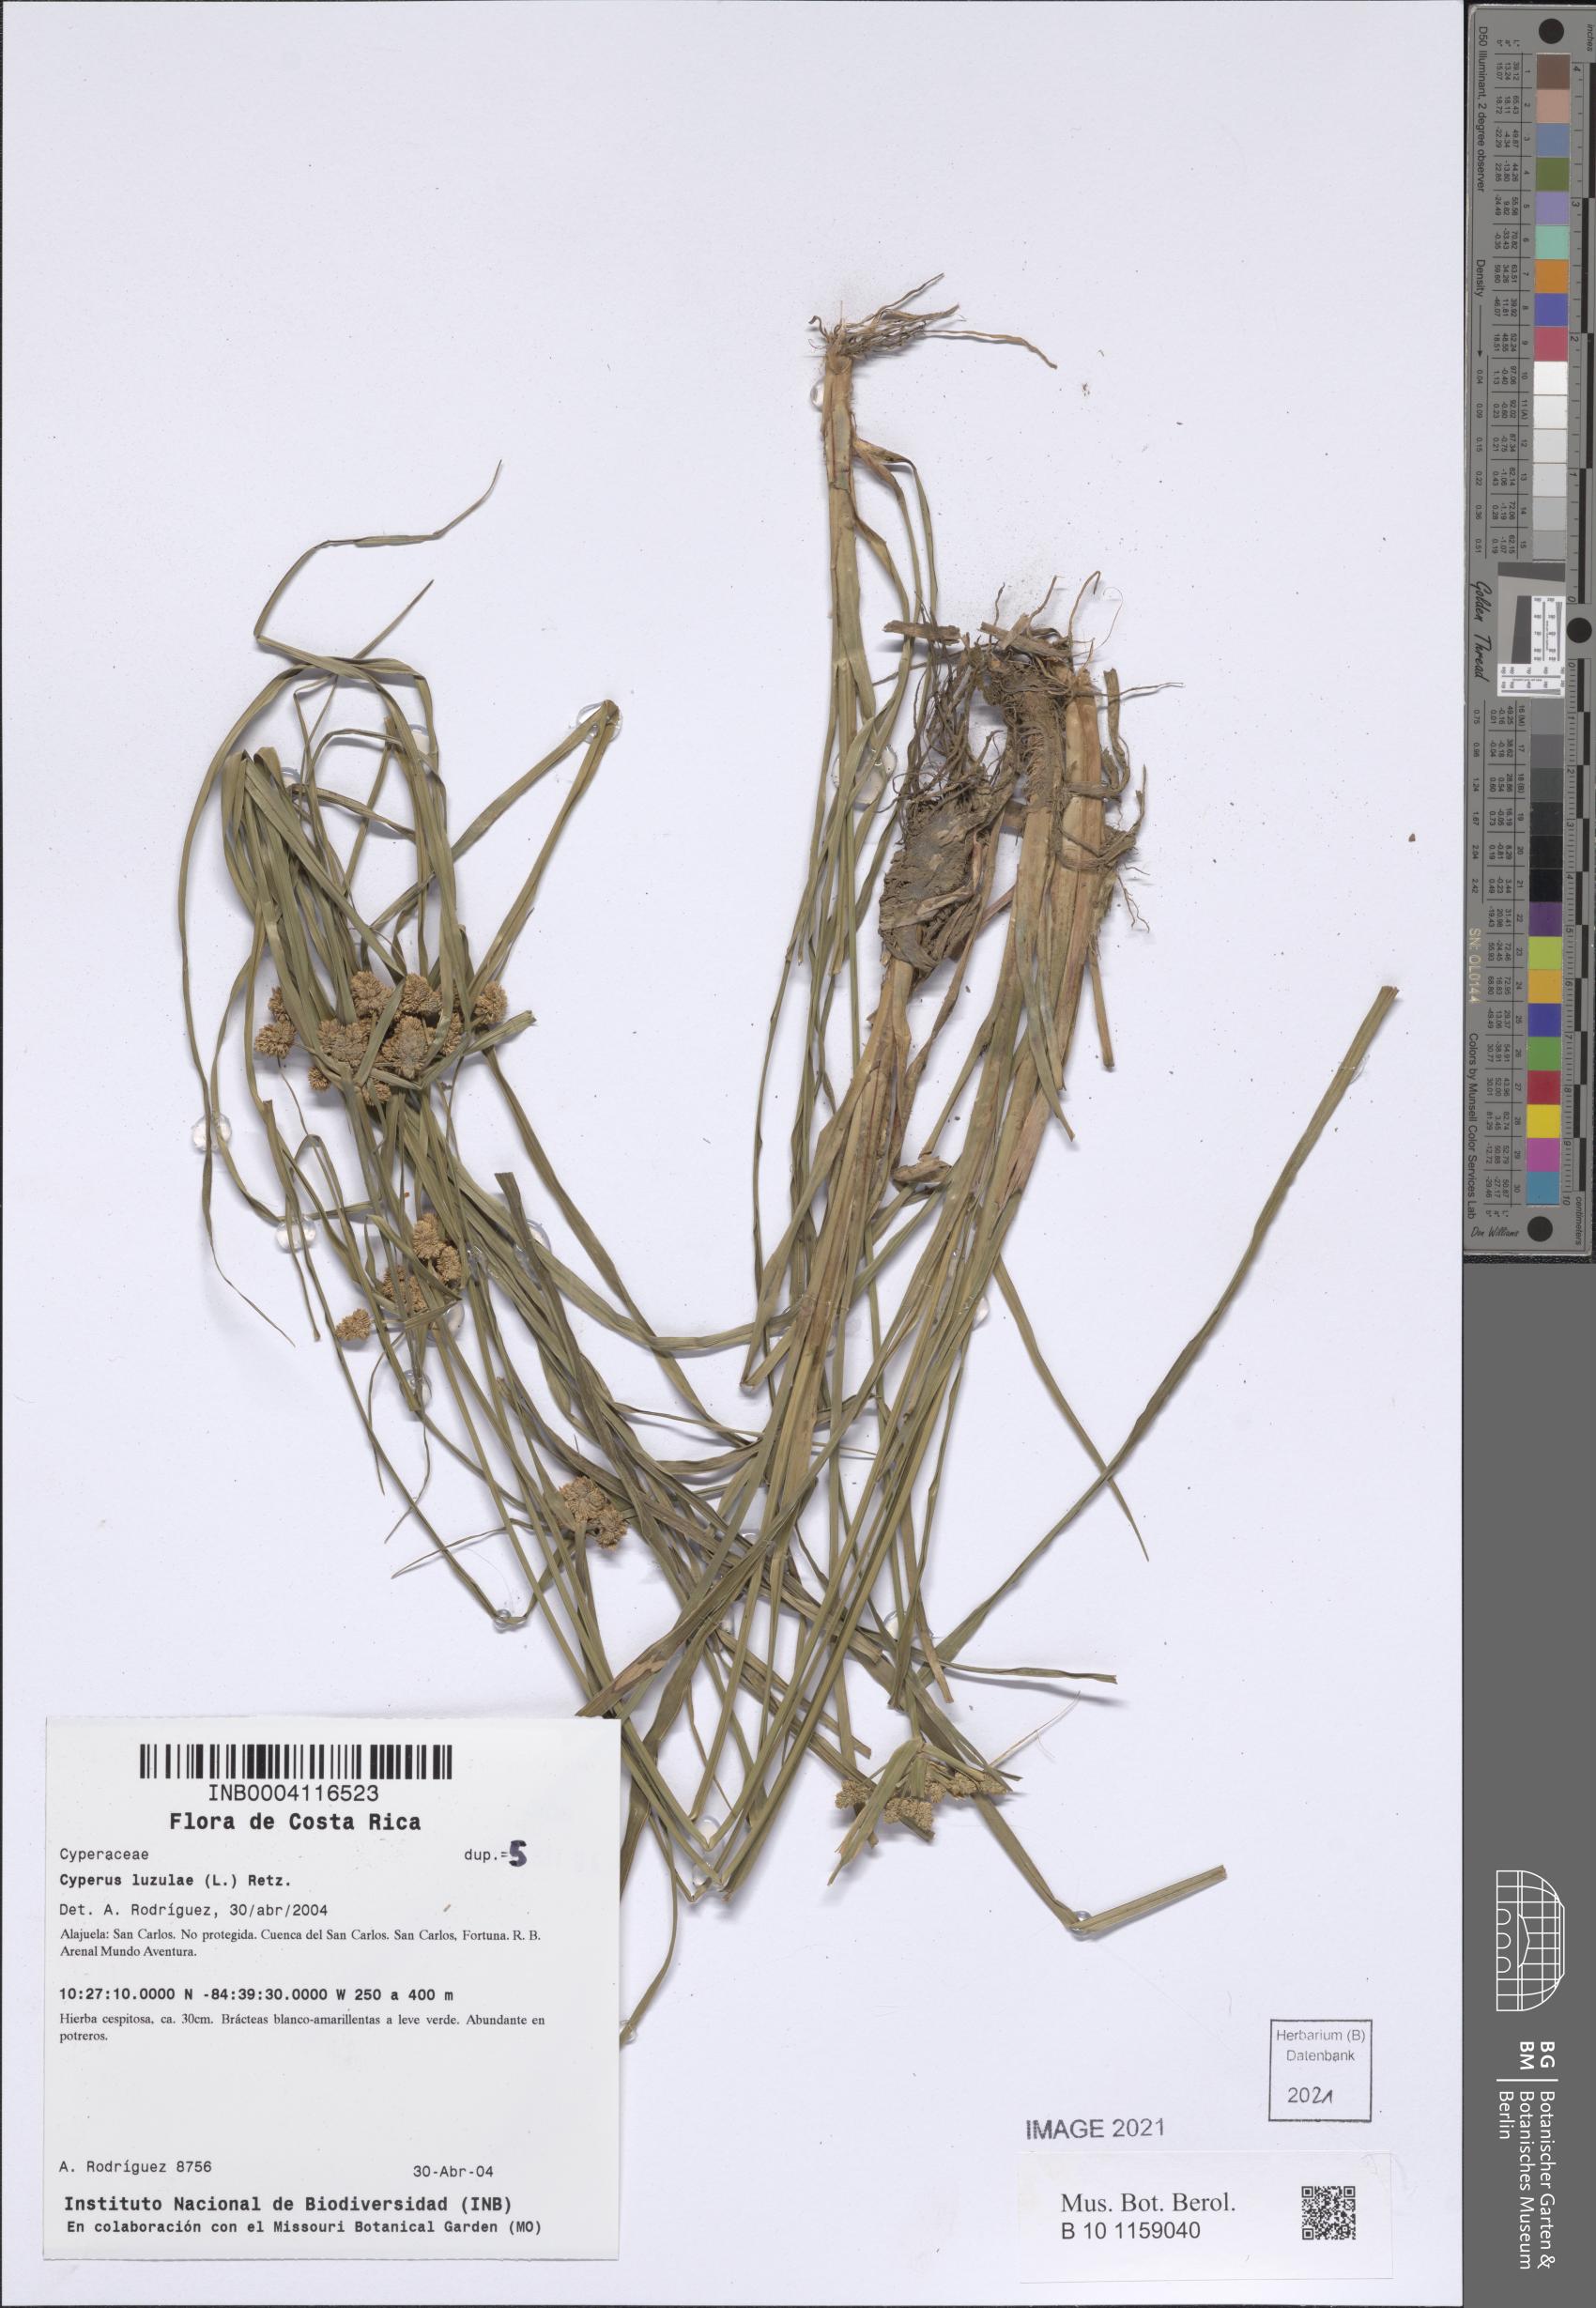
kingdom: Plantae
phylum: Tracheophyta
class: Liliopsida
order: Poales
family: Cyperaceae
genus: Cyperus
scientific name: Cyperus luzulae
